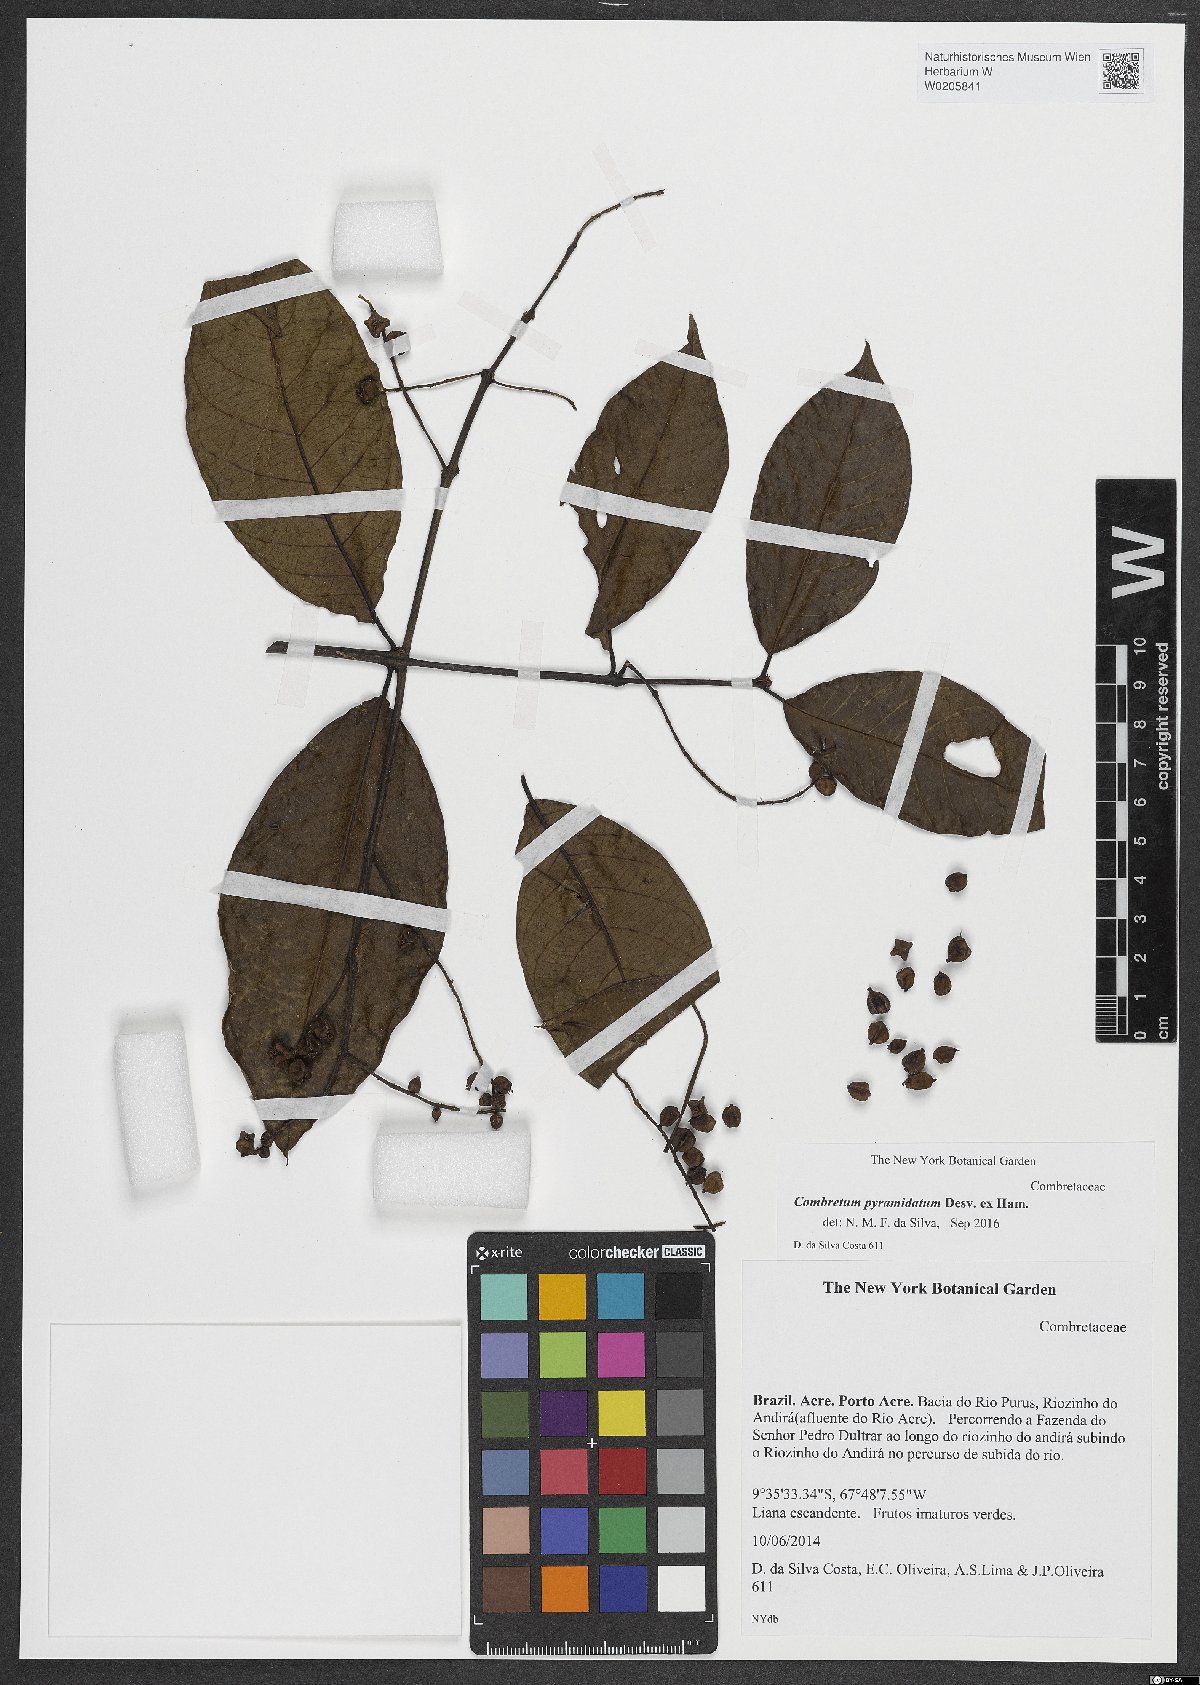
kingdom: Plantae
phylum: Tracheophyta
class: Magnoliopsida
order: Myrtales
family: Combretaceae
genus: Combretum
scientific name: Combretum pyramidatum
